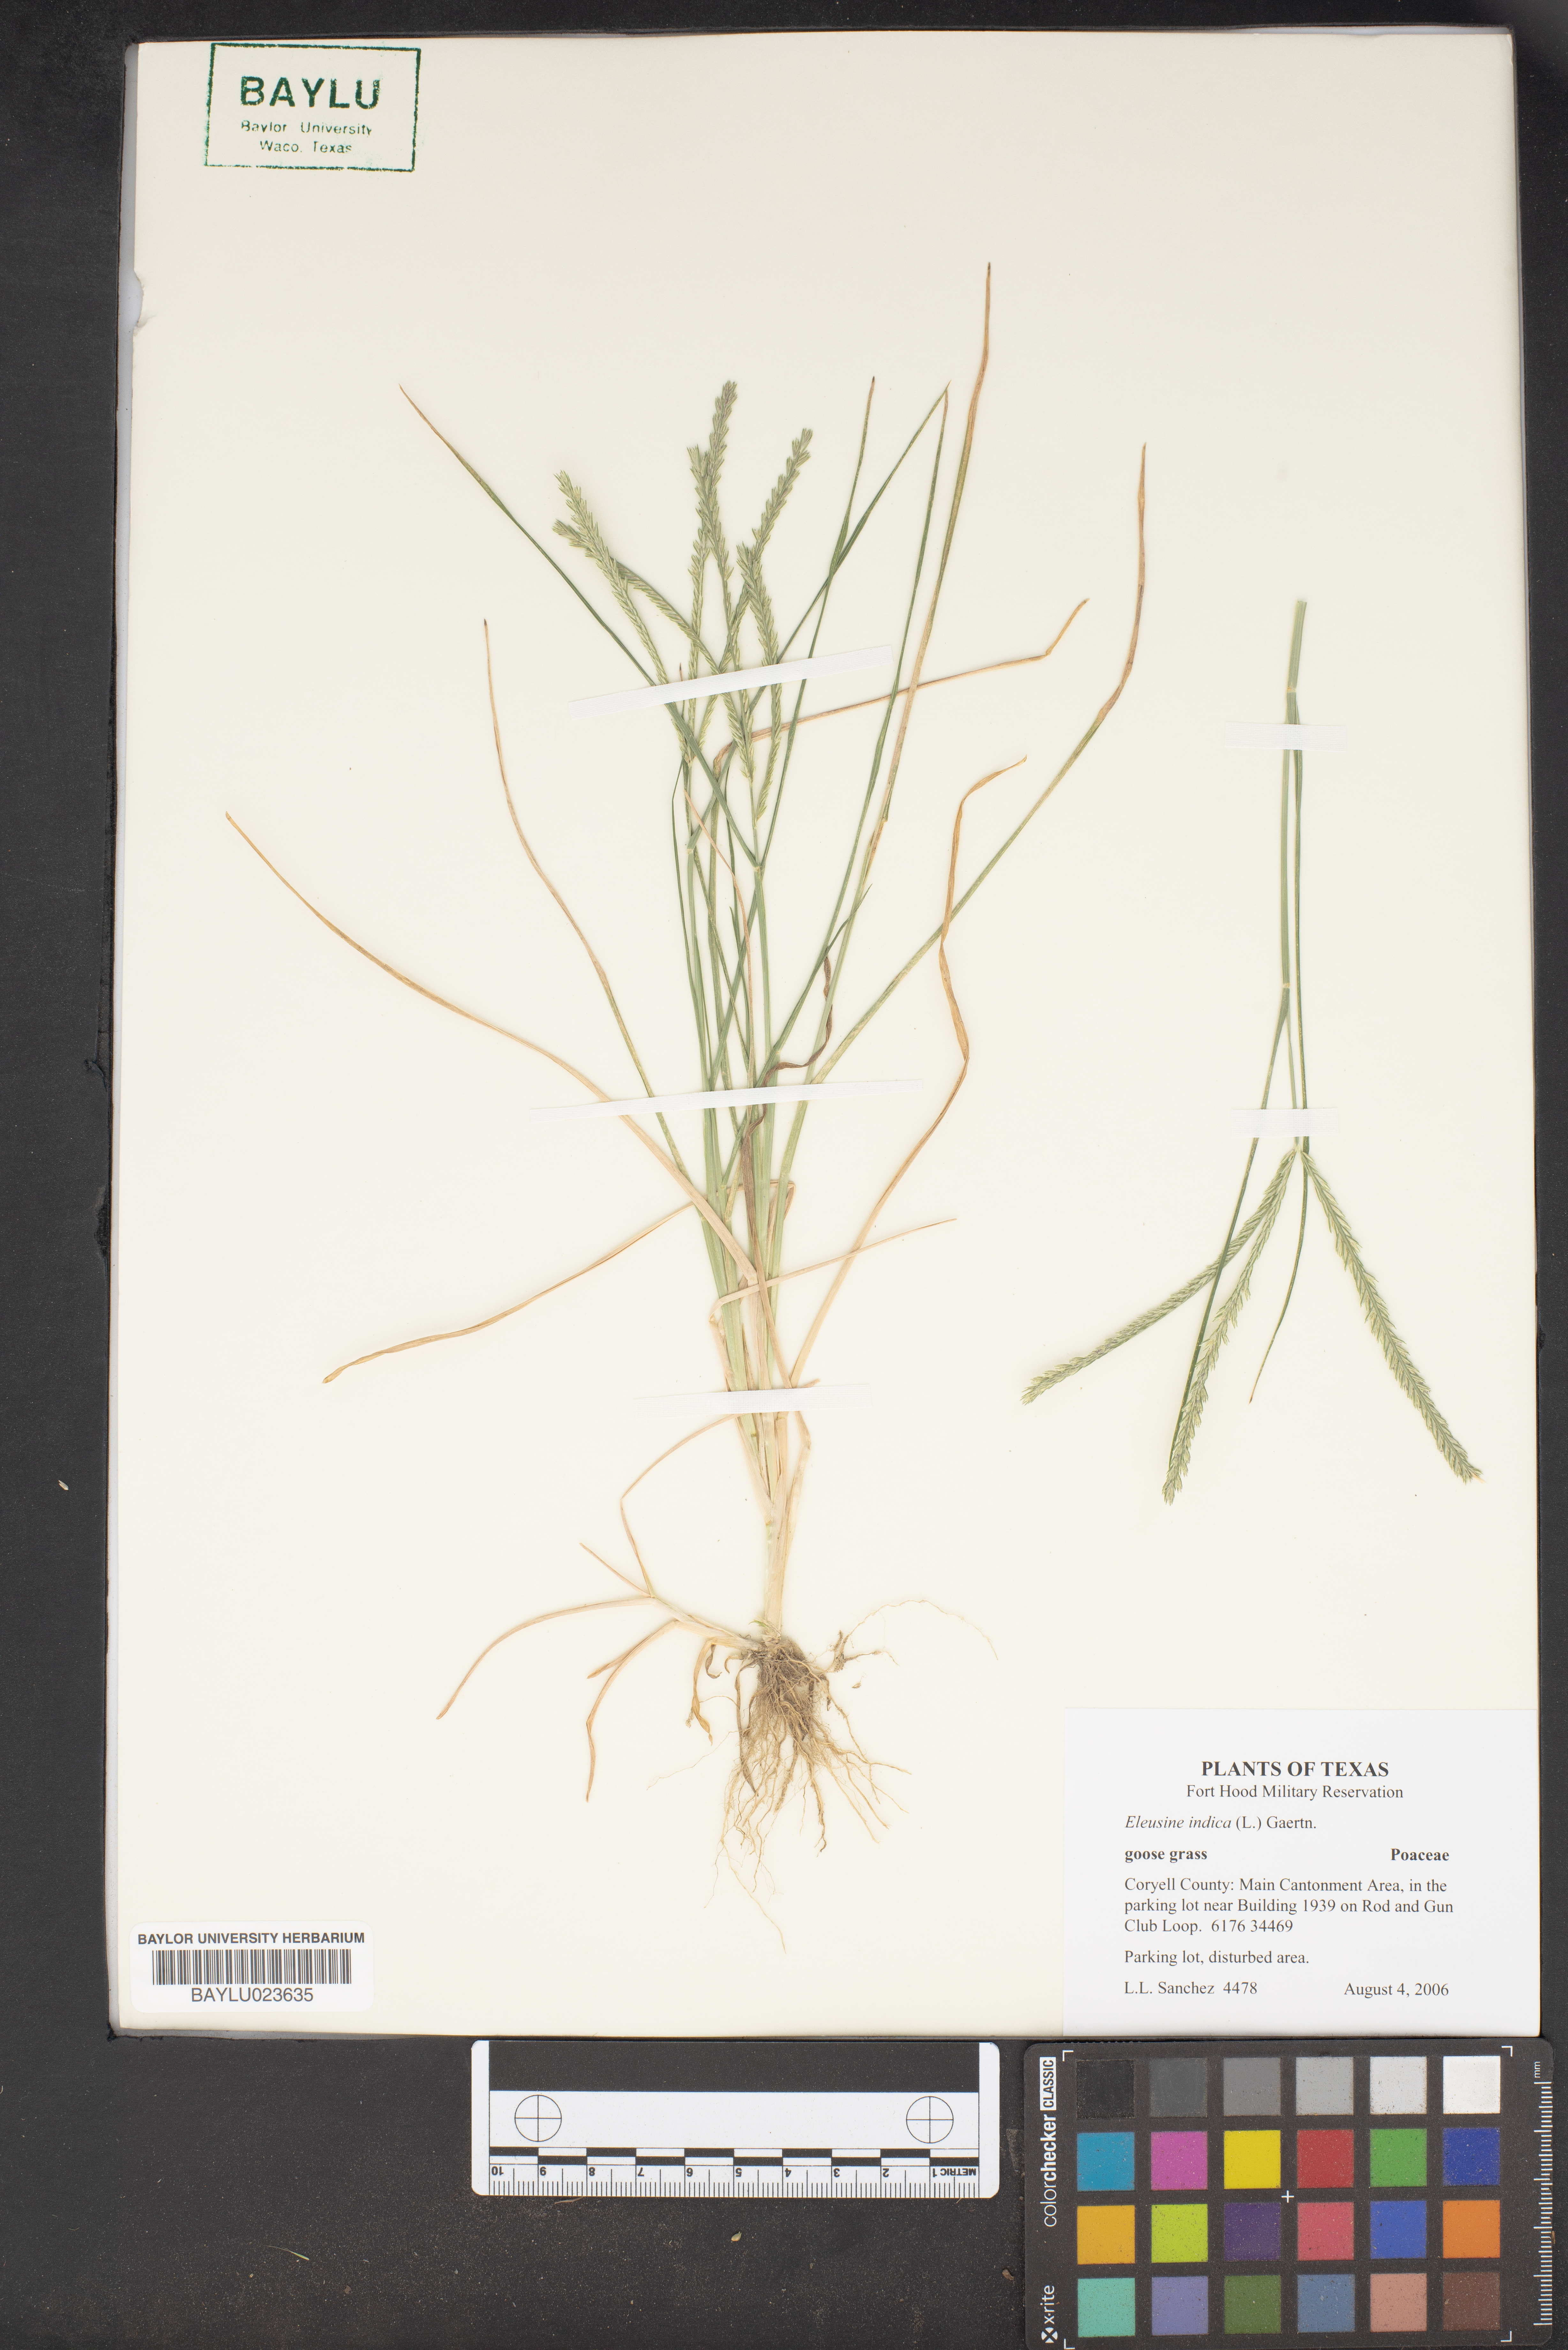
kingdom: Plantae
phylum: Tracheophyta
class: Liliopsida
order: Poales
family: Poaceae
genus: Eleusine
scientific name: Eleusine indica
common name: Yard-grass
